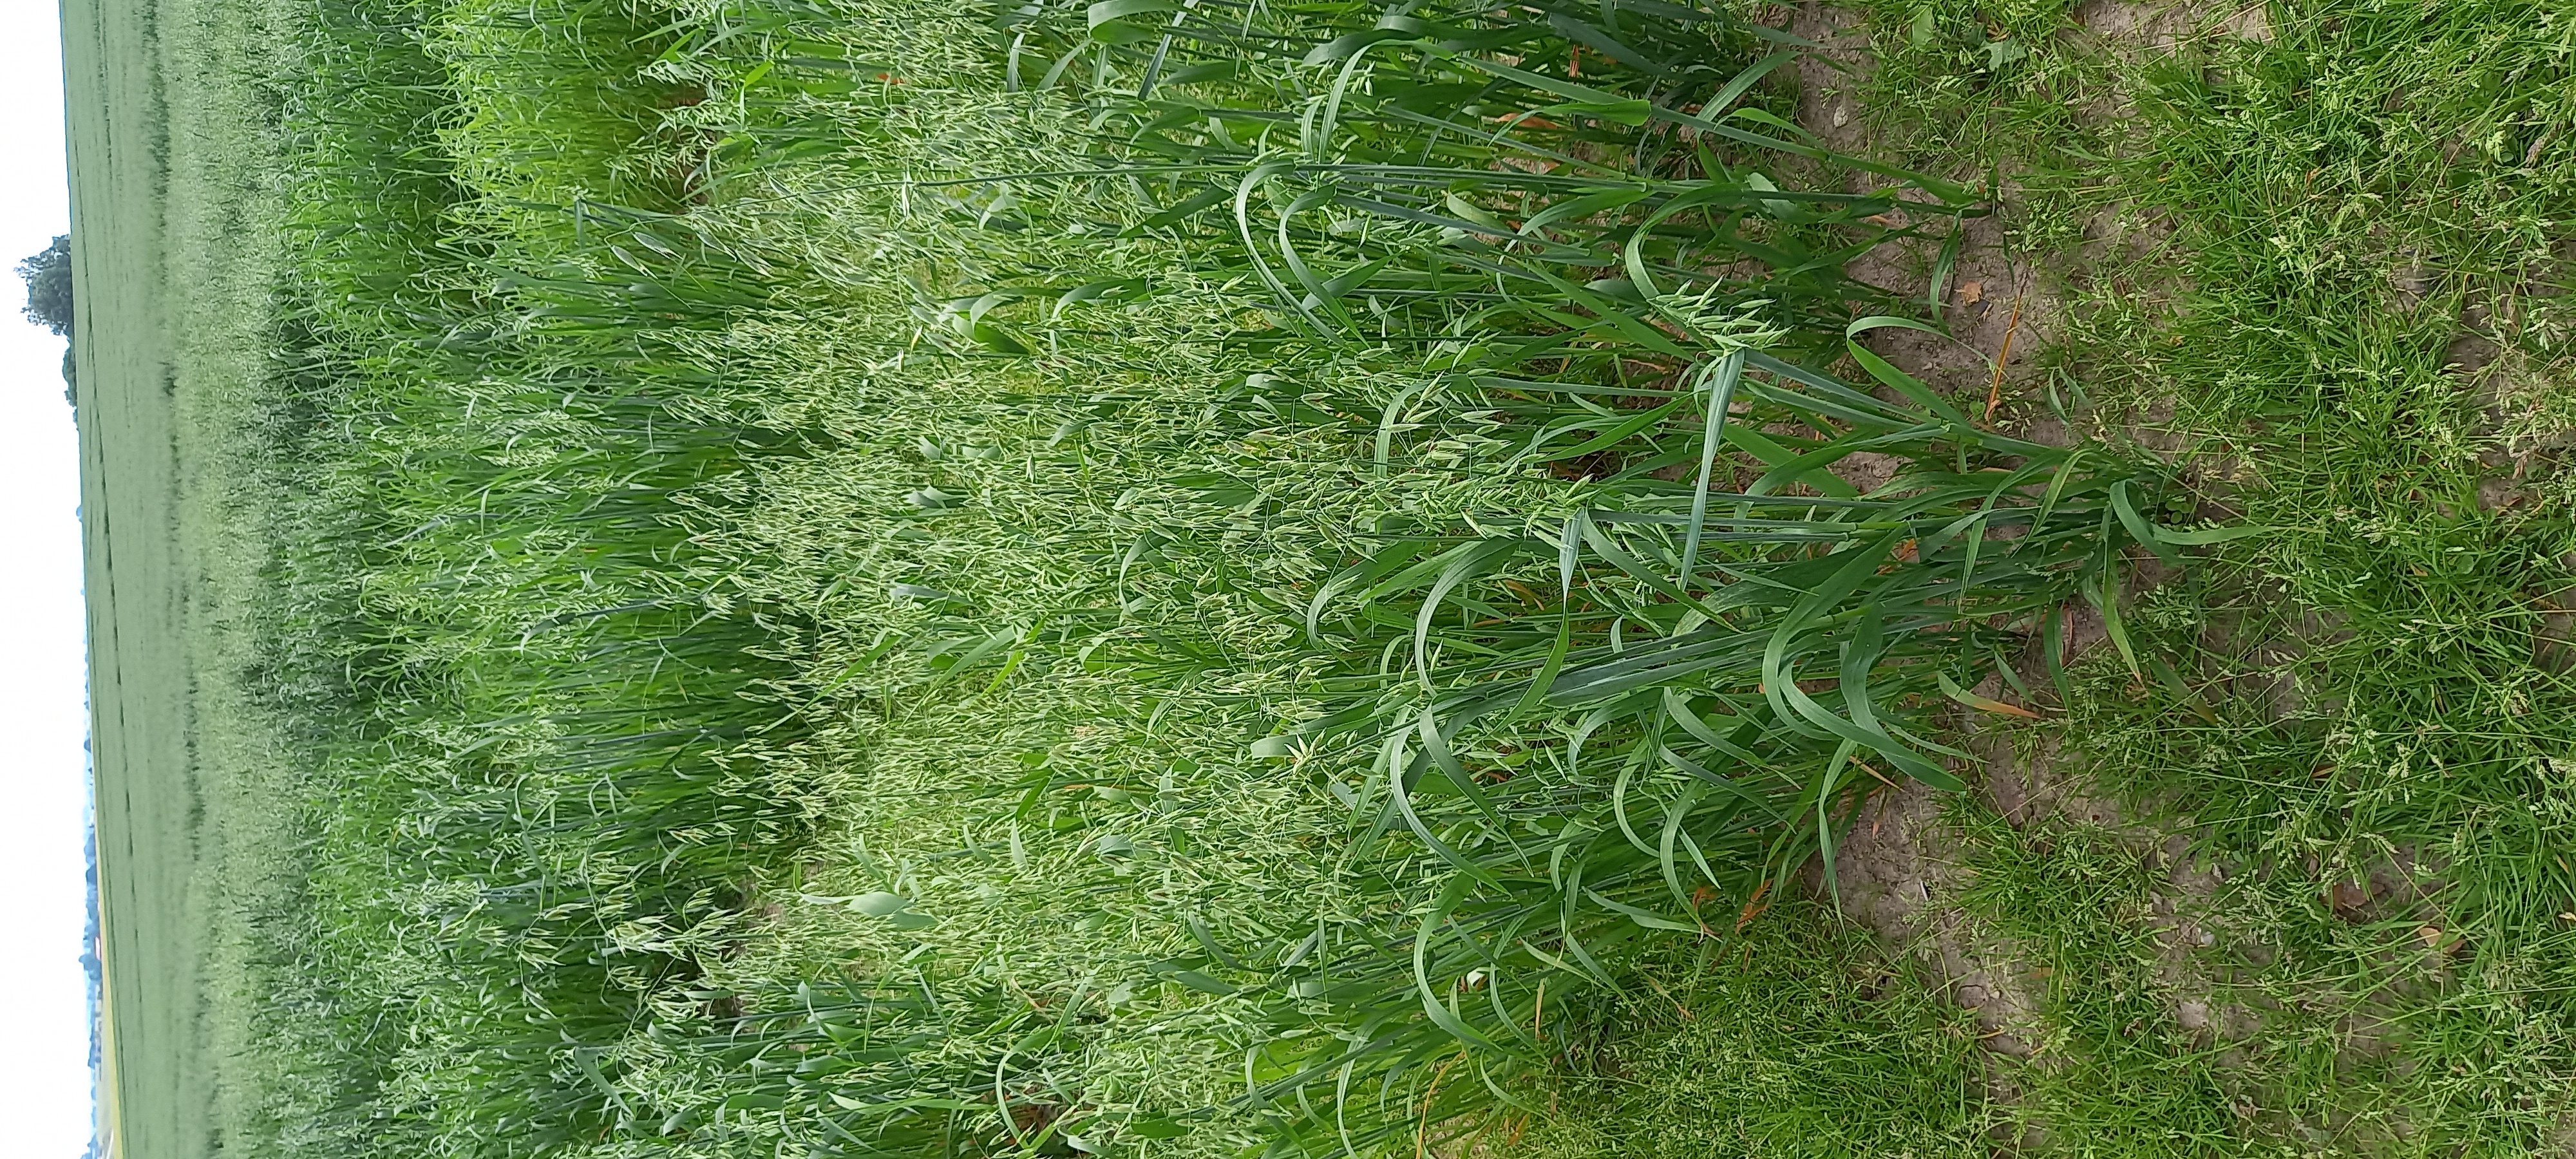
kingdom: Plantae
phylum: Tracheophyta
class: Liliopsida
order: Poales
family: Poaceae
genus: Avena
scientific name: Avena sativa
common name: Oat
